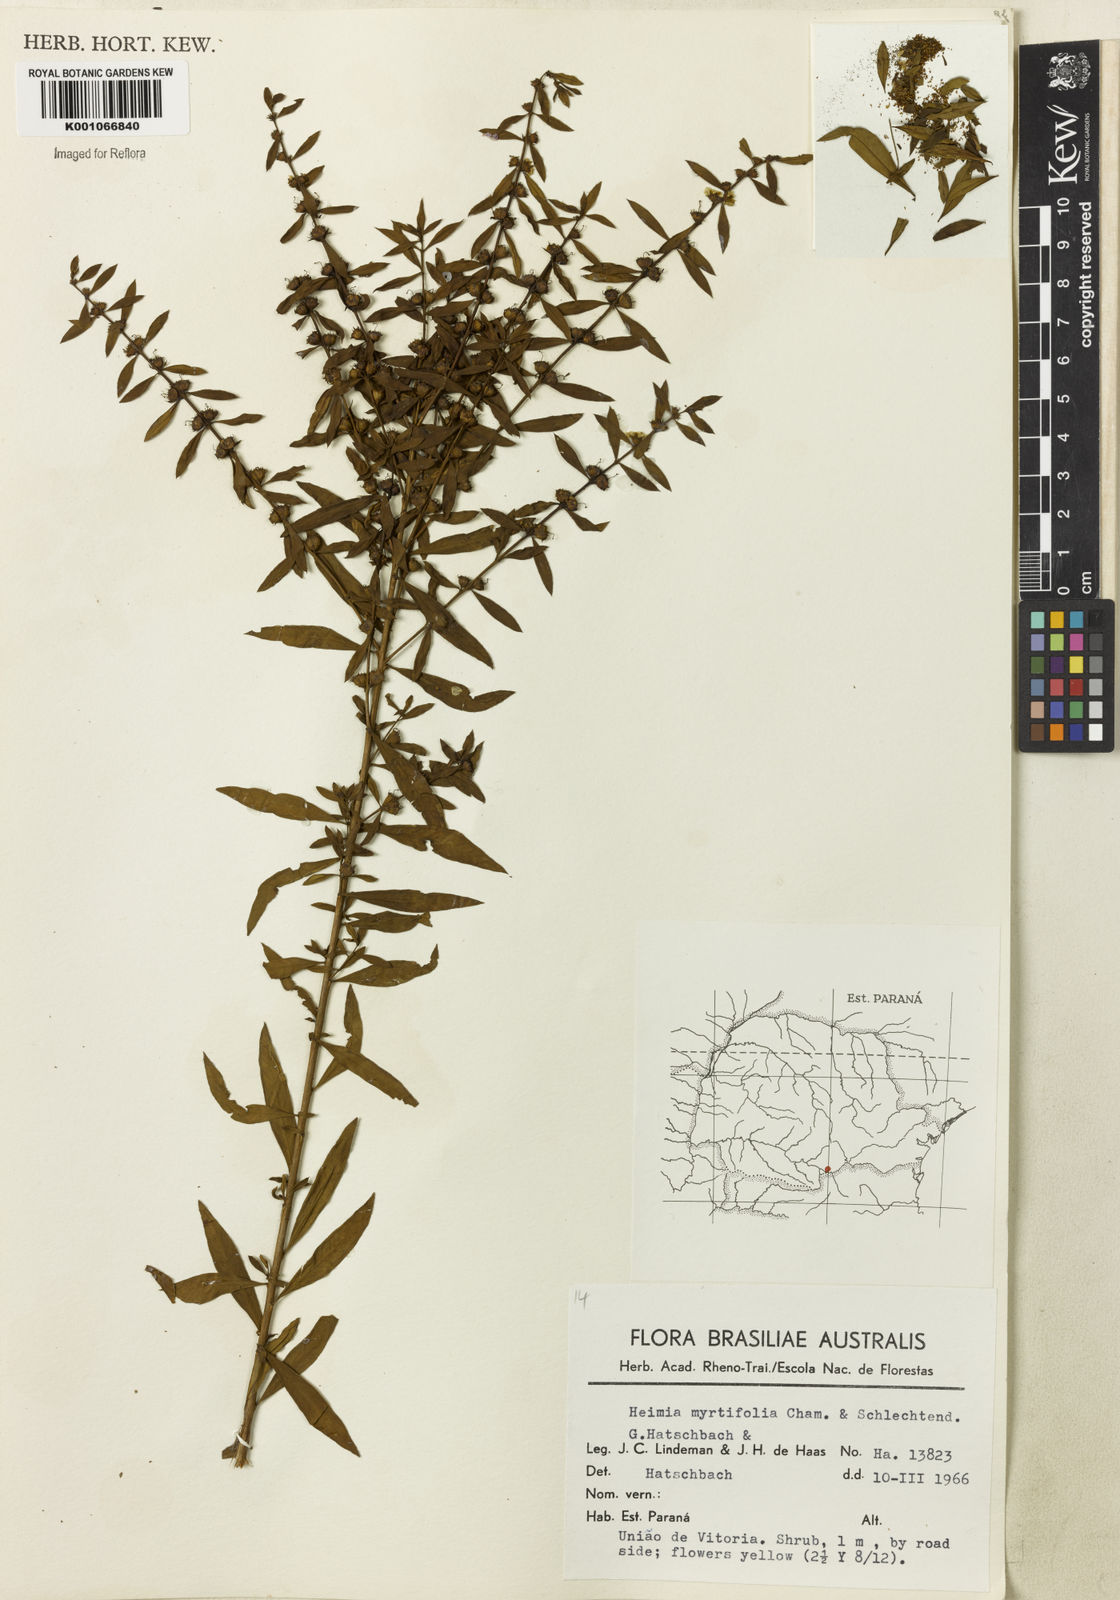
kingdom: Plantae
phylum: Tracheophyta
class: Magnoliopsida
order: Myrtales
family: Lythraceae
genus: Heimia
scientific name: Heimia apetala
